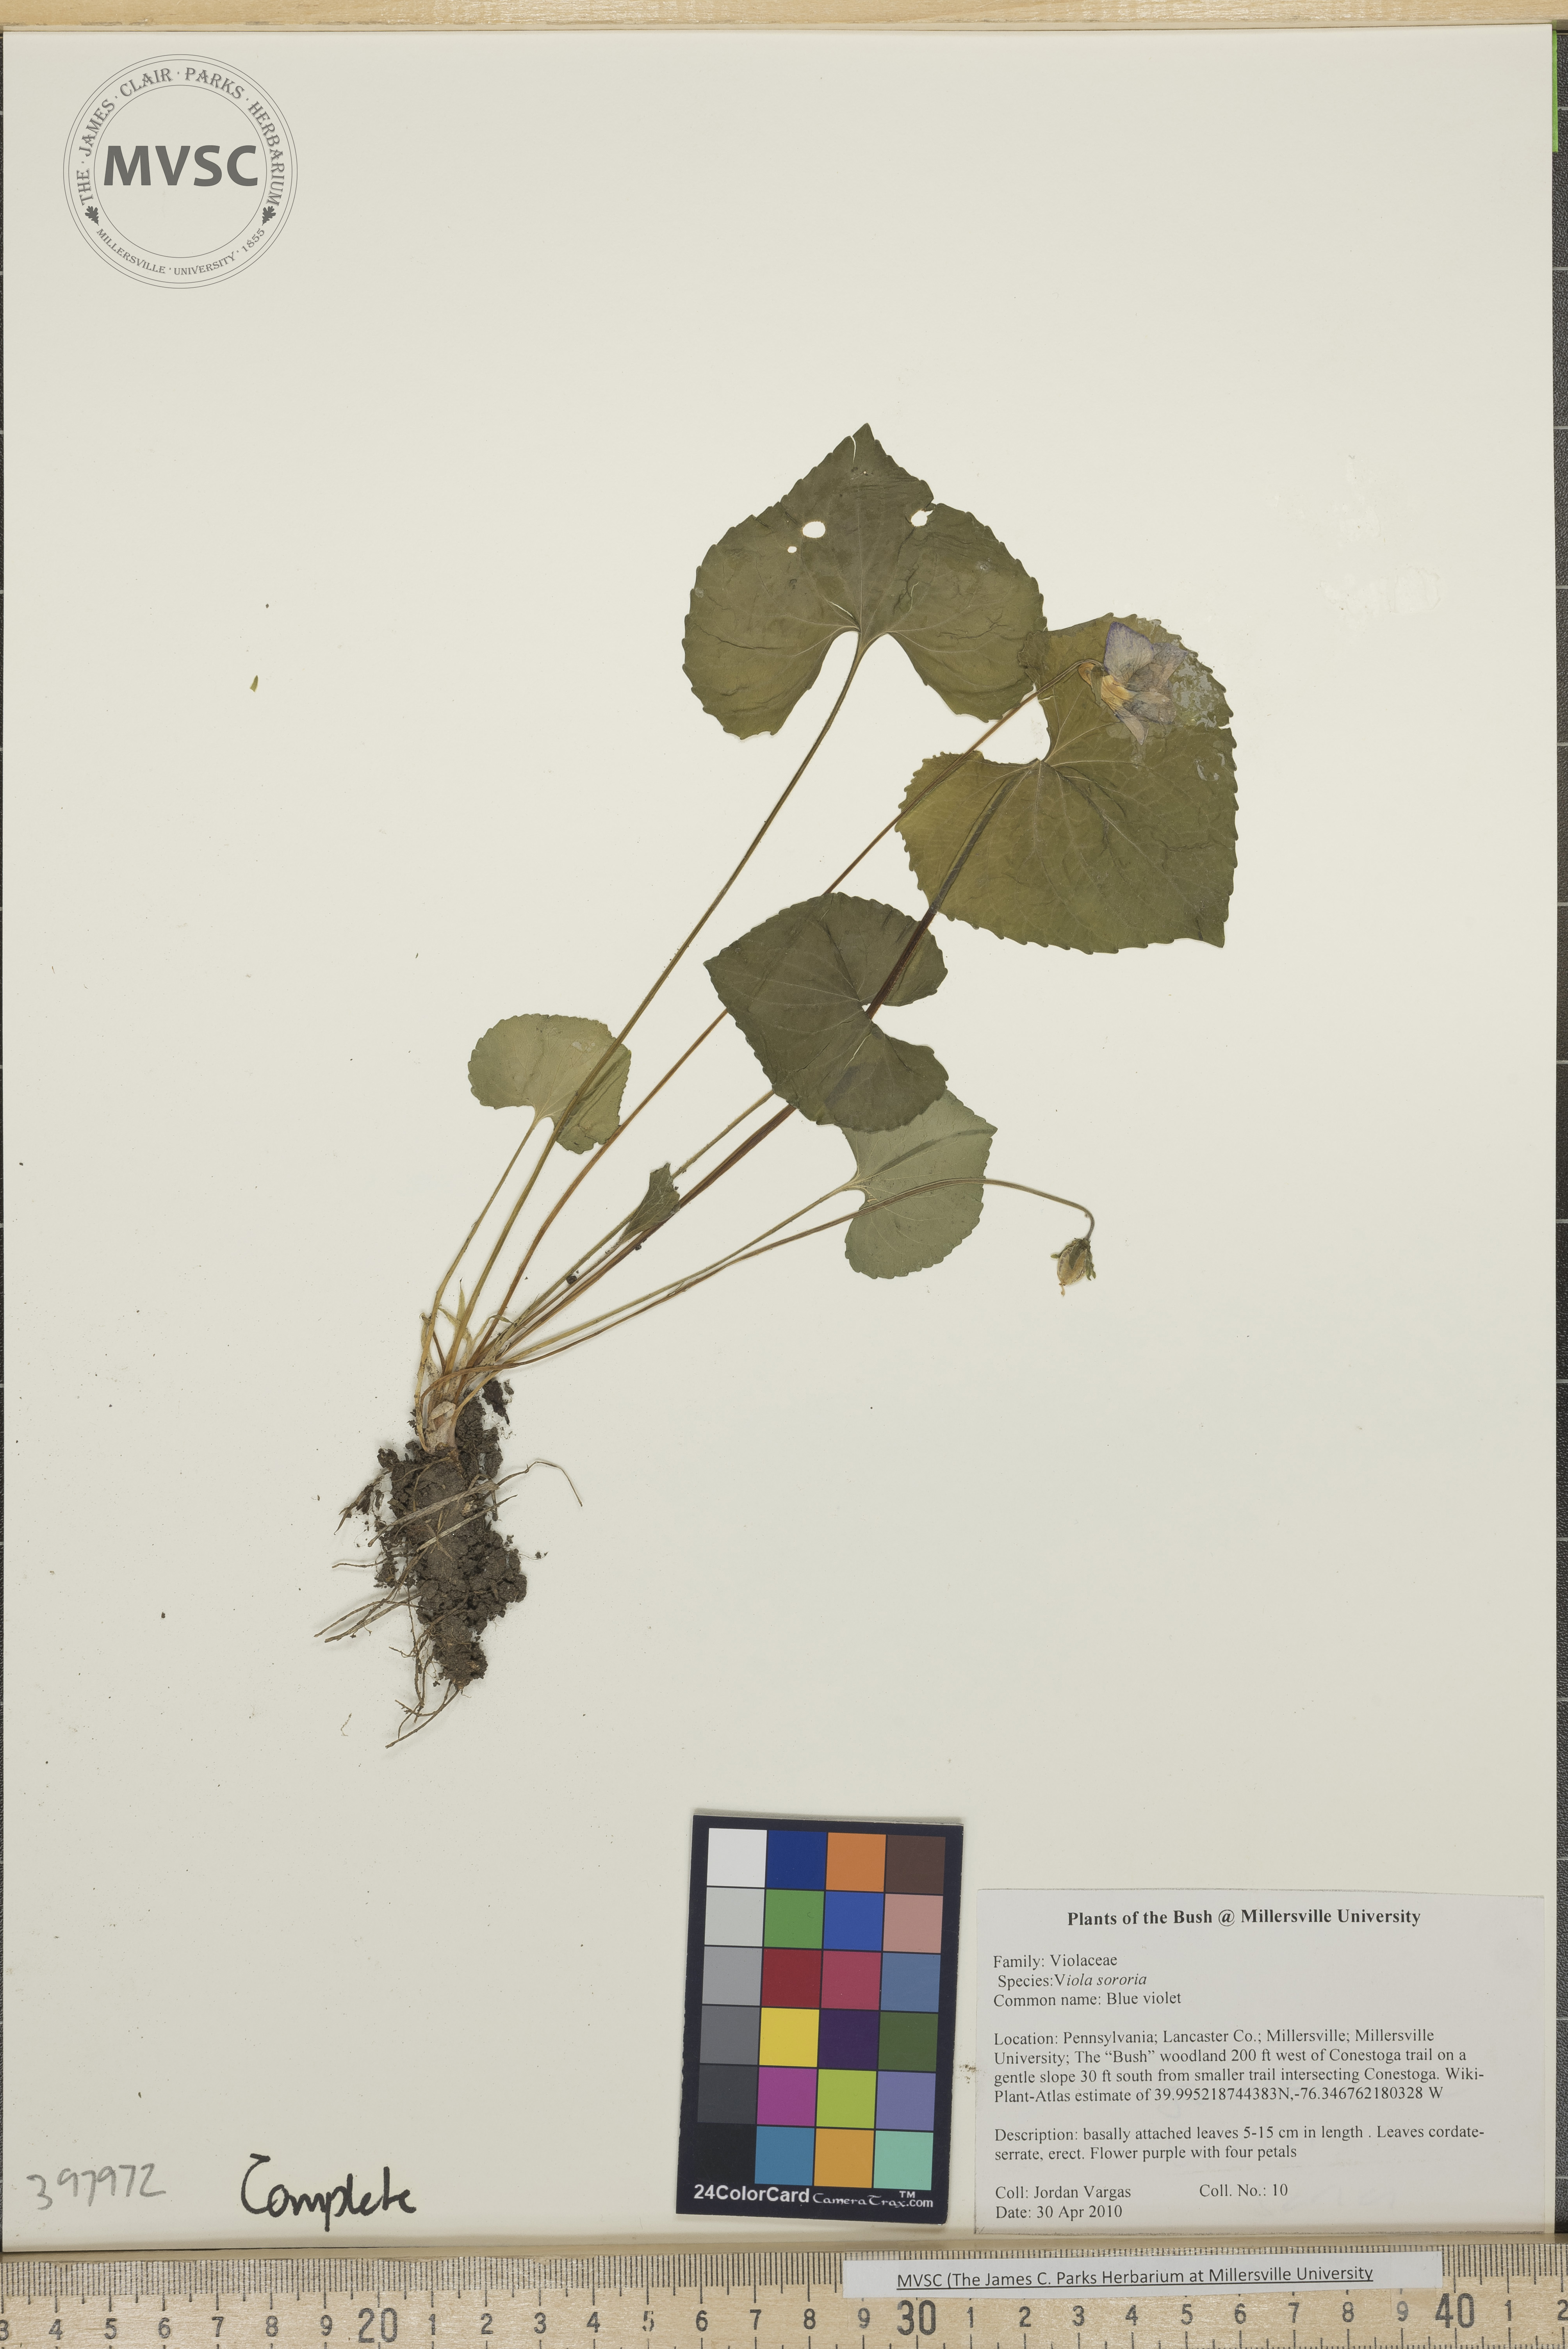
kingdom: Plantae
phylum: Tracheophyta
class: Magnoliopsida
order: Malpighiales
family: Violaceae
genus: Viola
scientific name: Viola sororia
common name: Common blue violet
